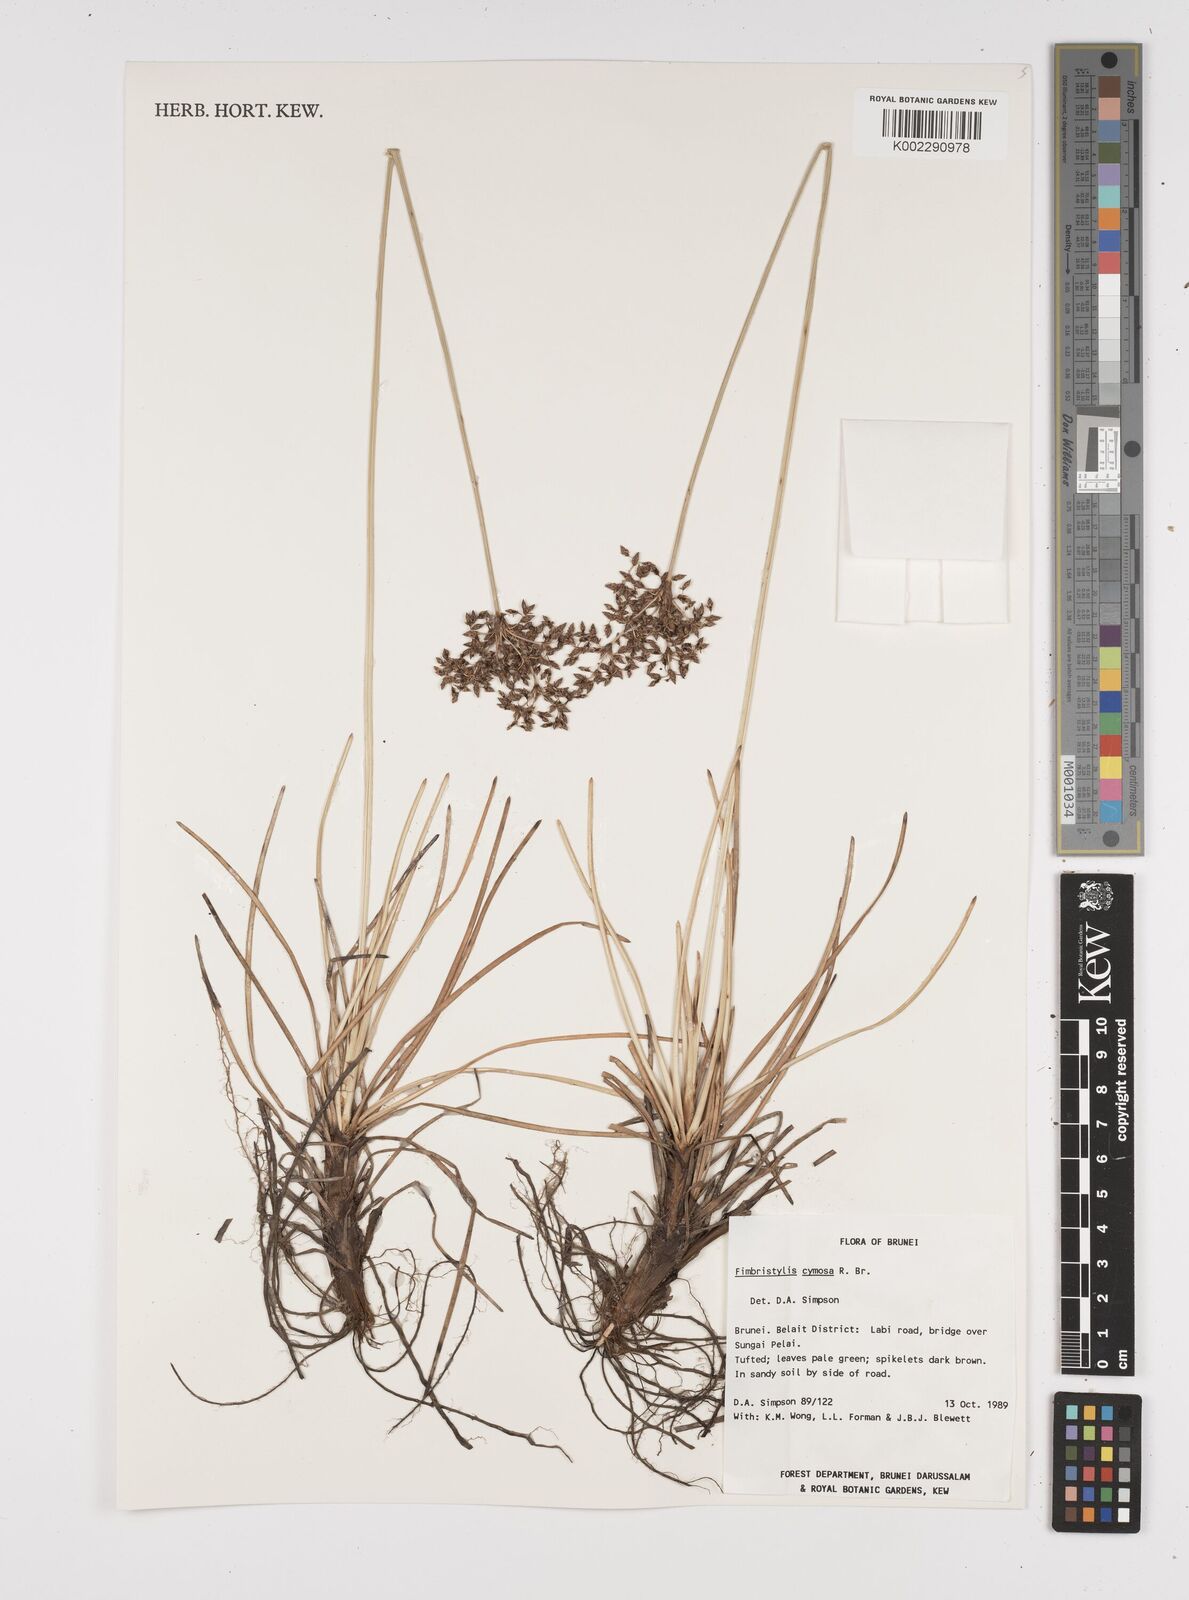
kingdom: Plantae
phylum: Tracheophyta
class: Liliopsida
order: Poales
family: Cyperaceae
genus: Fimbristylis
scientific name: Fimbristylis cymosa
